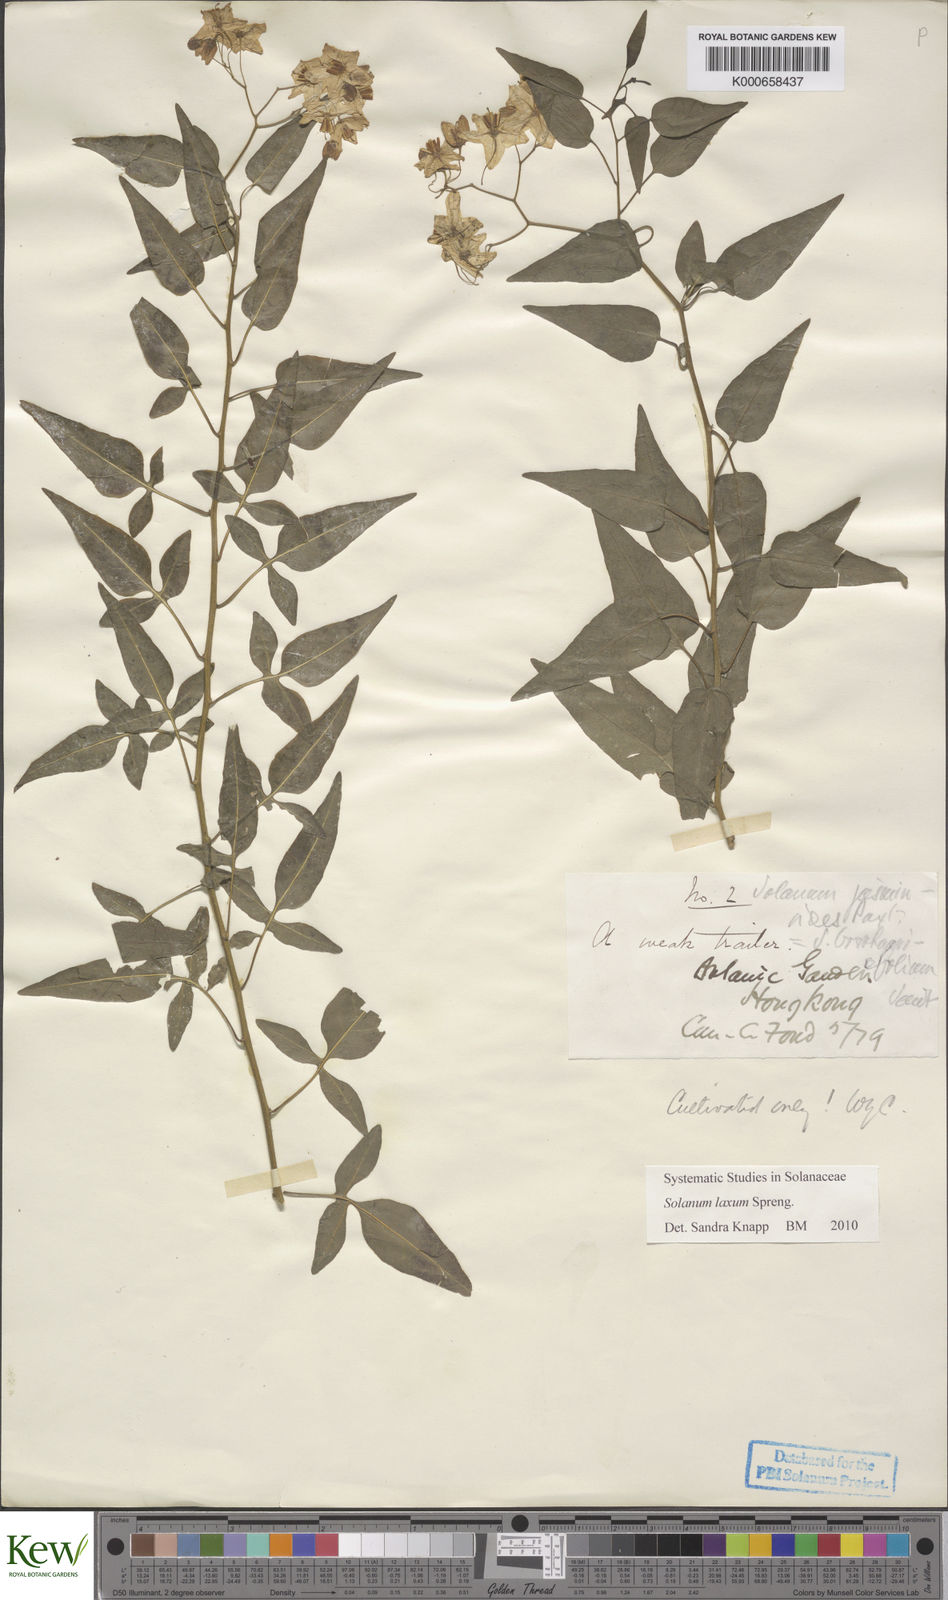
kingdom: Plantae
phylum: Tracheophyta
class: Magnoliopsida
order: Solanales
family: Solanaceae
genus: Solanum
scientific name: Solanum laxum
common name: Nightshade
